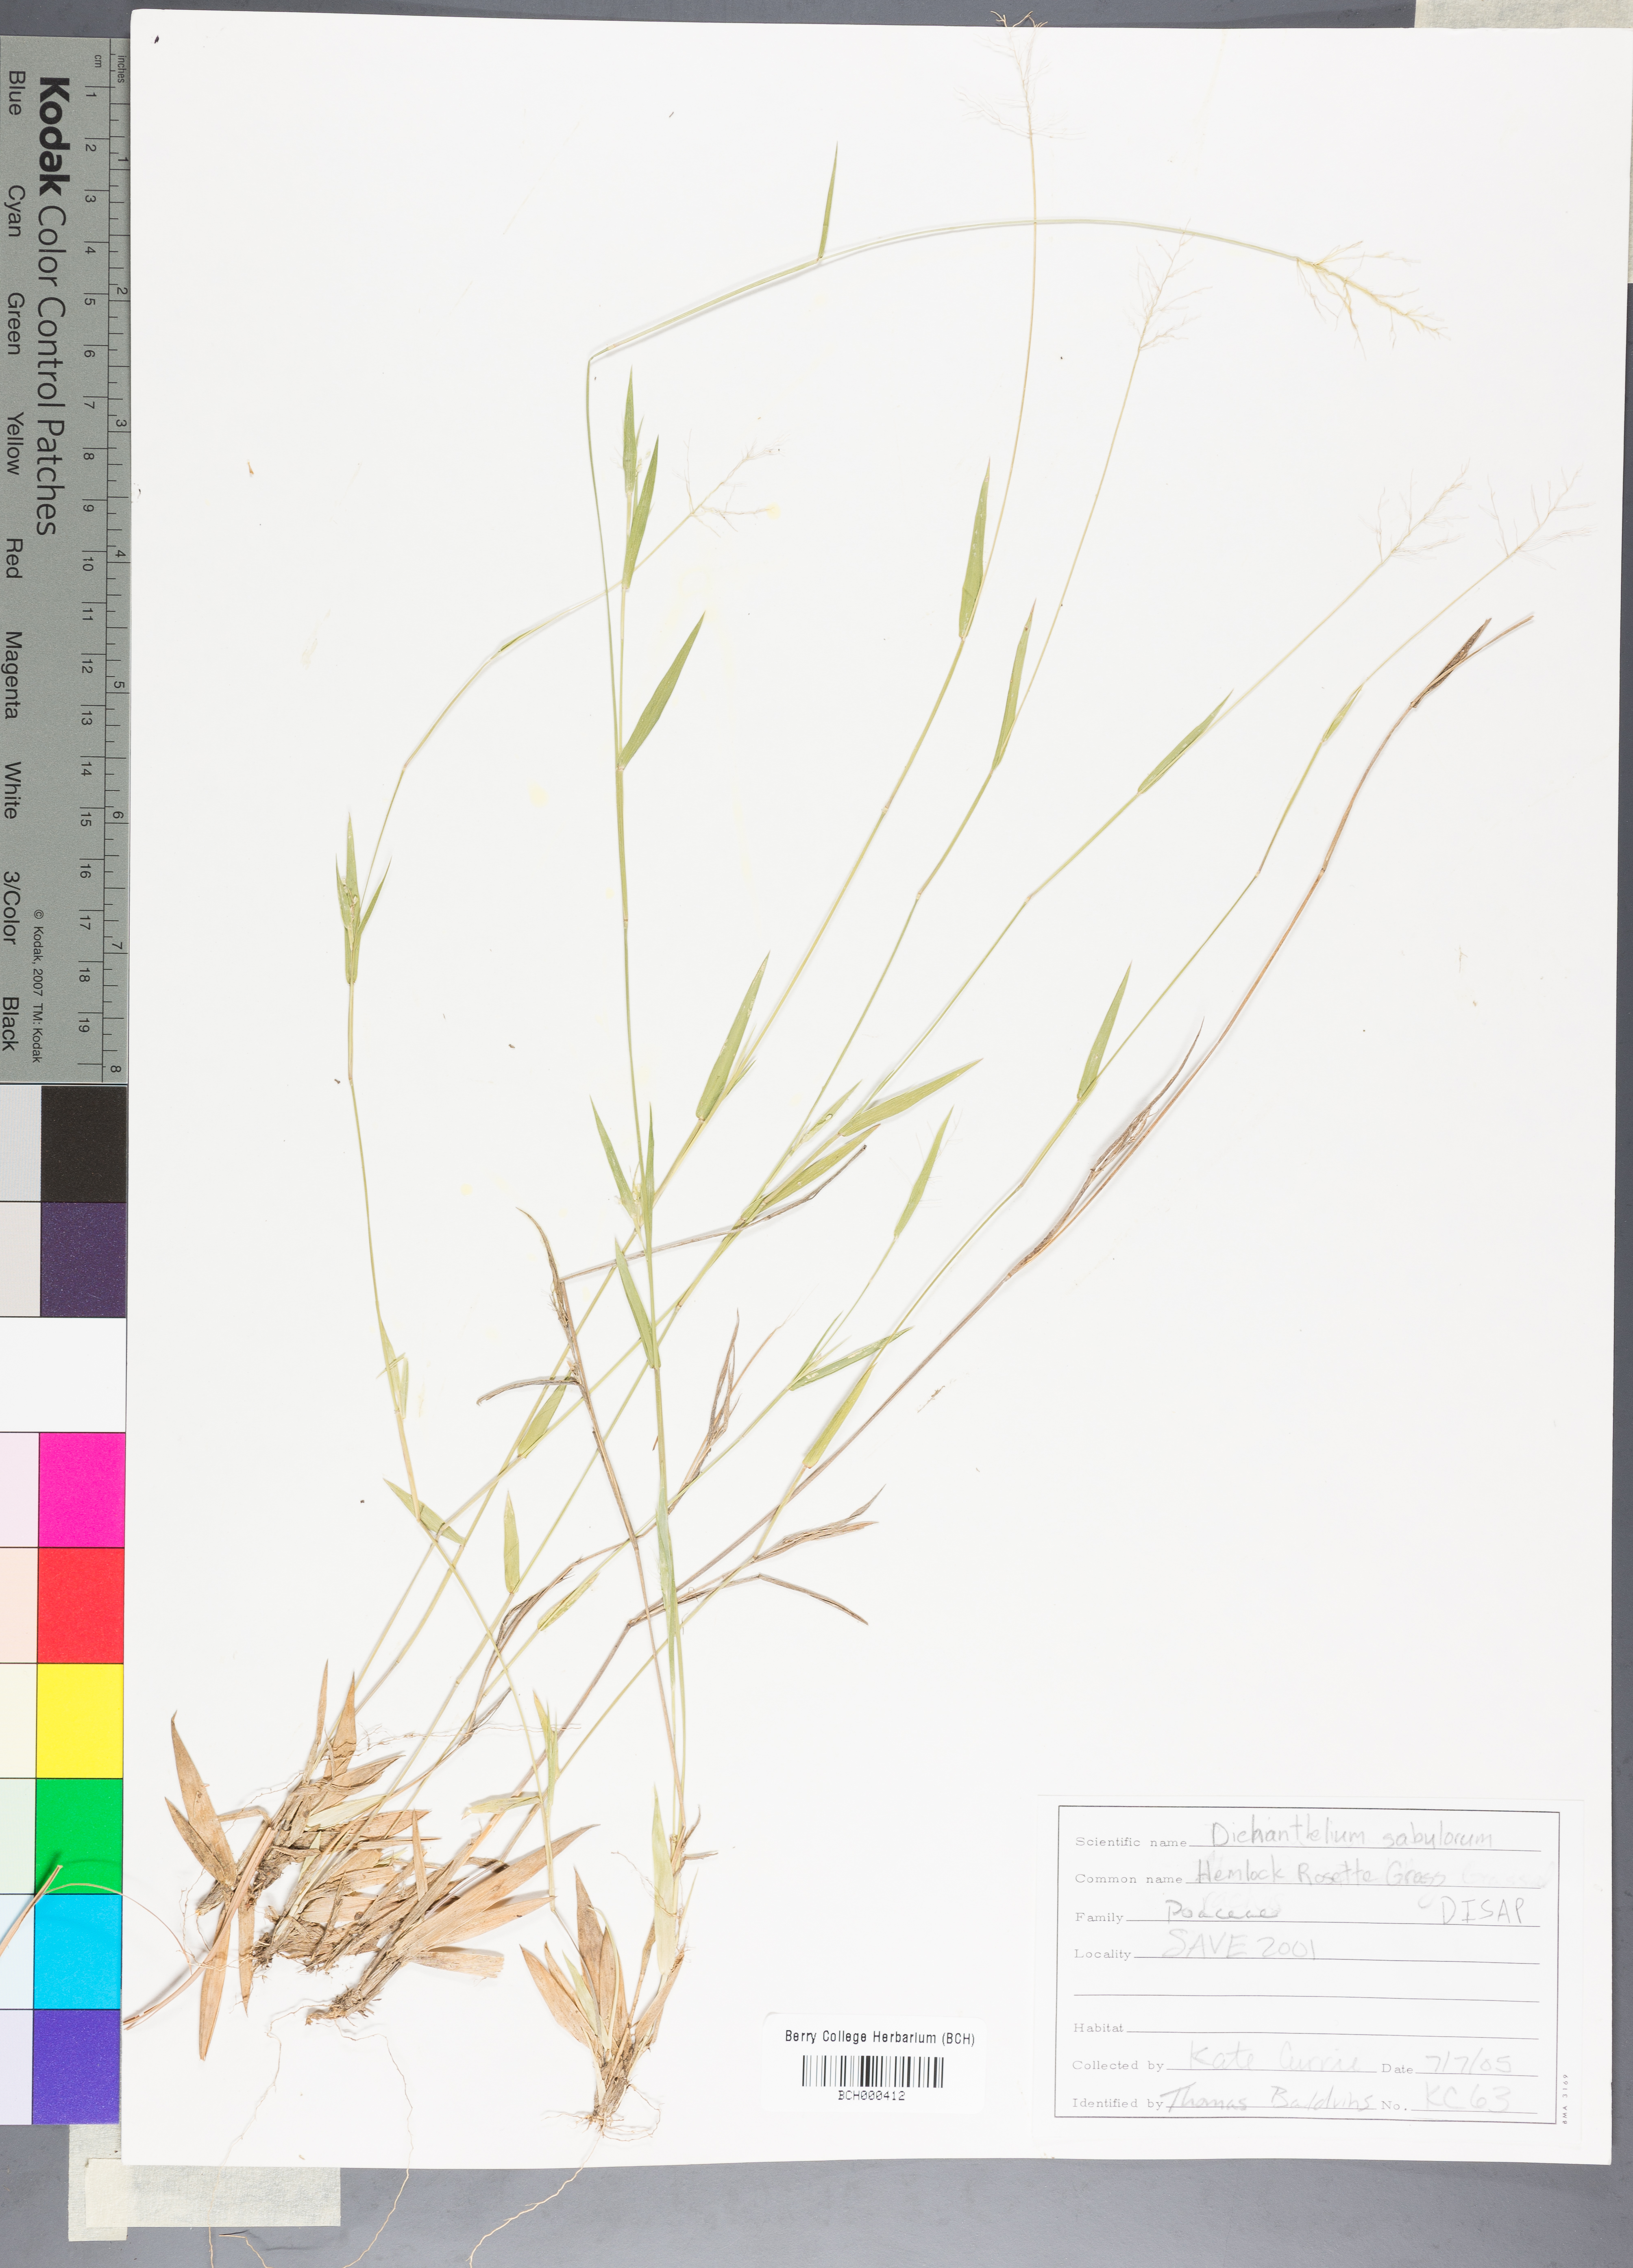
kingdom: Plantae
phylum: Tracheophyta
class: Liliopsida
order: Poales
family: Poaceae
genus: Dichanthelium
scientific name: Dichanthelium patulum
